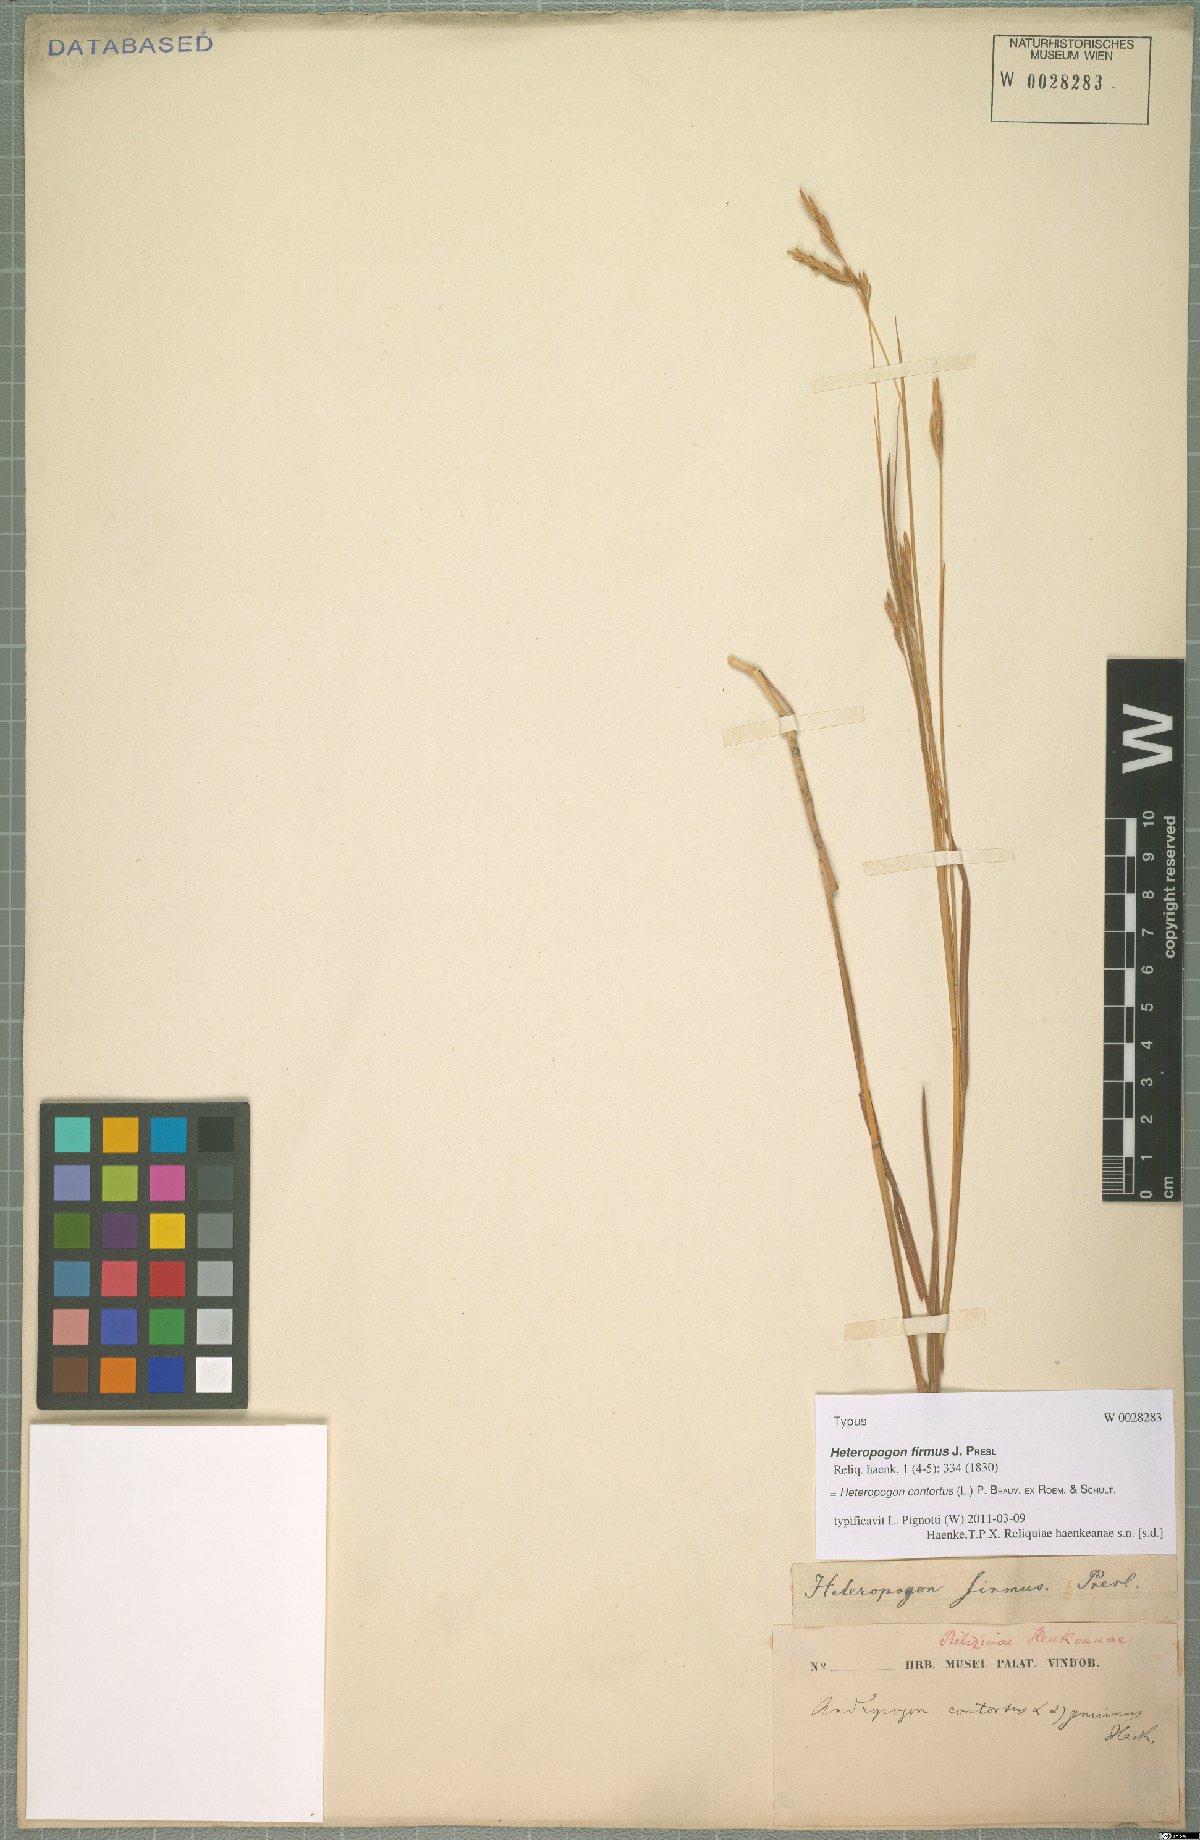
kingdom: Plantae
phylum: Tracheophyta
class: Liliopsida
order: Poales
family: Poaceae
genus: Heteropogon
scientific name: Heteropogon contortus
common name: Tanglehead
